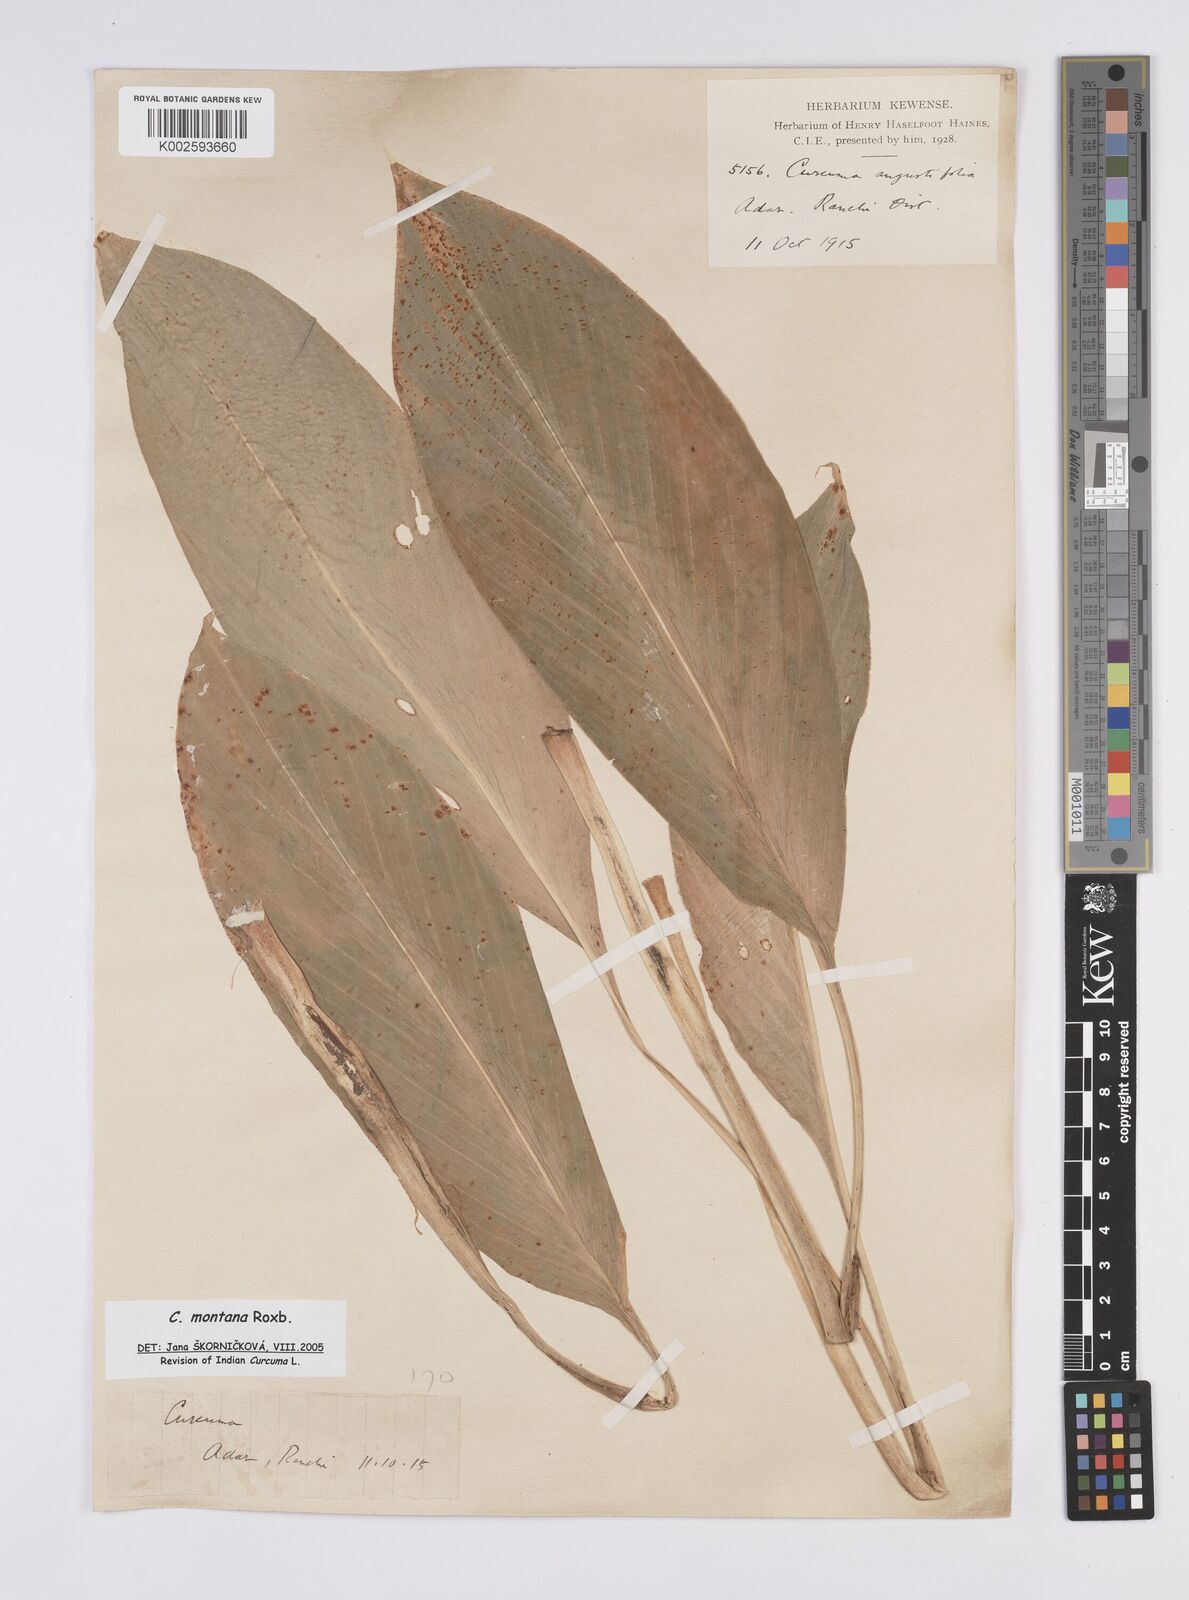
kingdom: Plantae
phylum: Tracheophyta
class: Liliopsida
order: Zingiberales
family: Zingiberaceae
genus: Curcuma
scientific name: Curcuma montana
